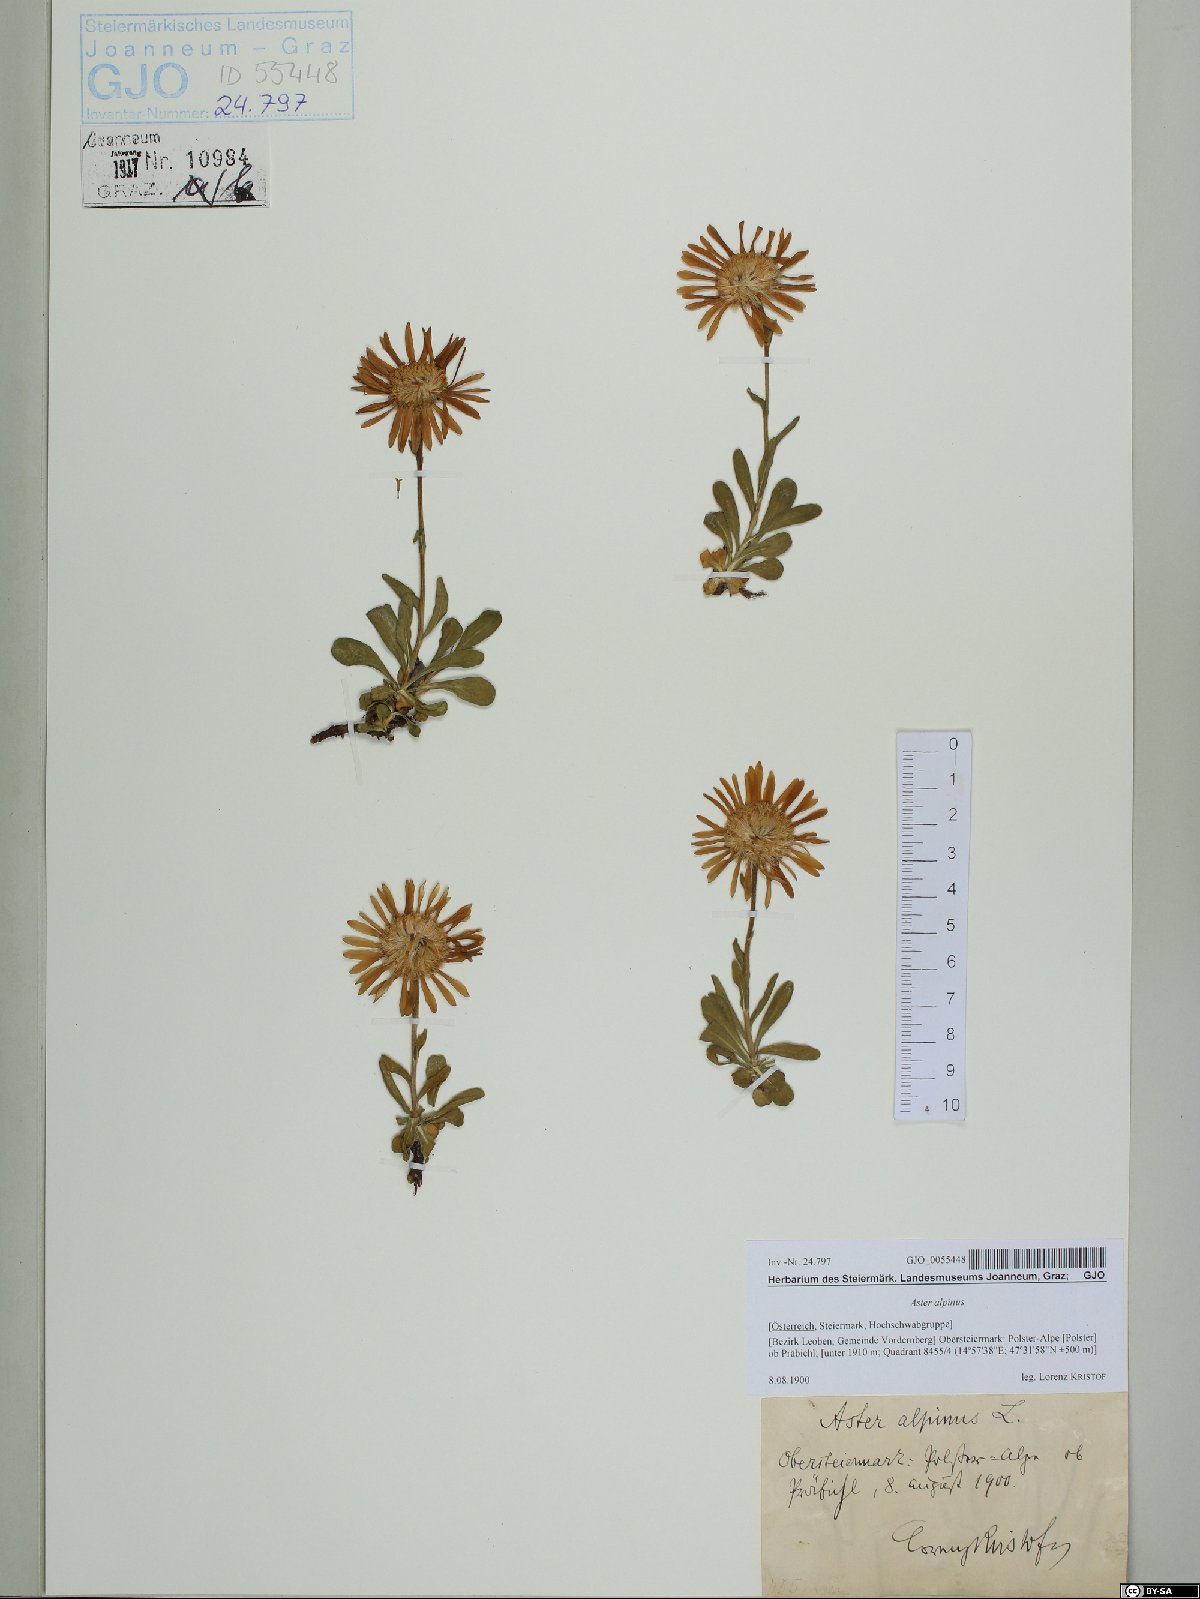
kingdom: Plantae
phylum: Tracheophyta
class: Magnoliopsida
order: Asterales
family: Asteraceae
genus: Aster
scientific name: Aster alpinus
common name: Alpine aster
